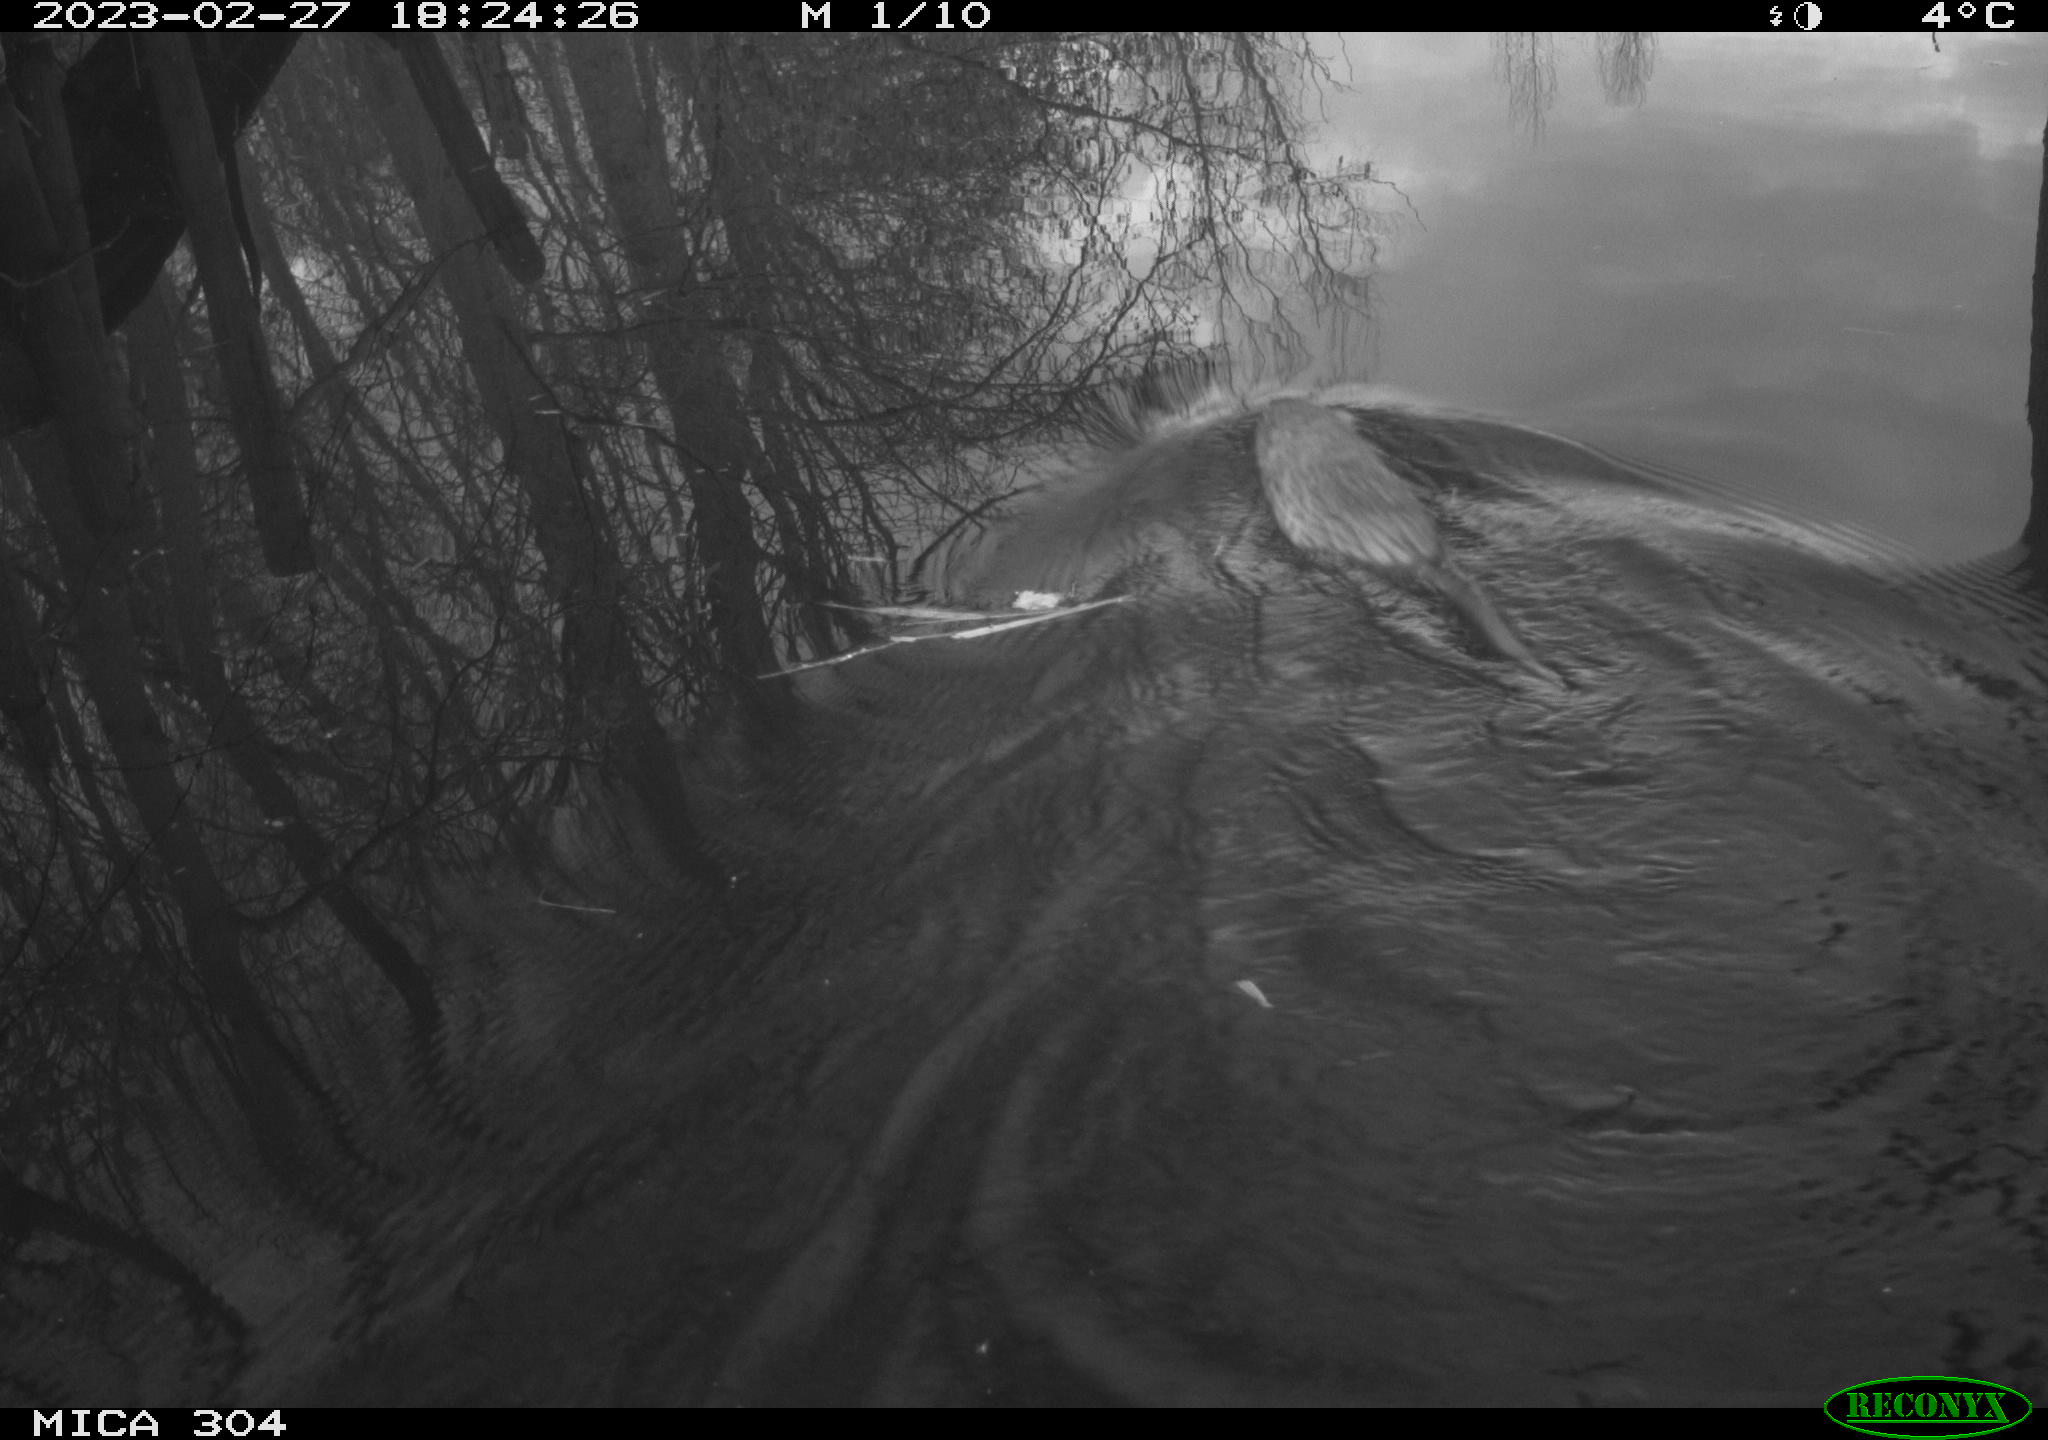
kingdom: Animalia
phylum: Chordata
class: Mammalia
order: Rodentia
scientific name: Rodentia
